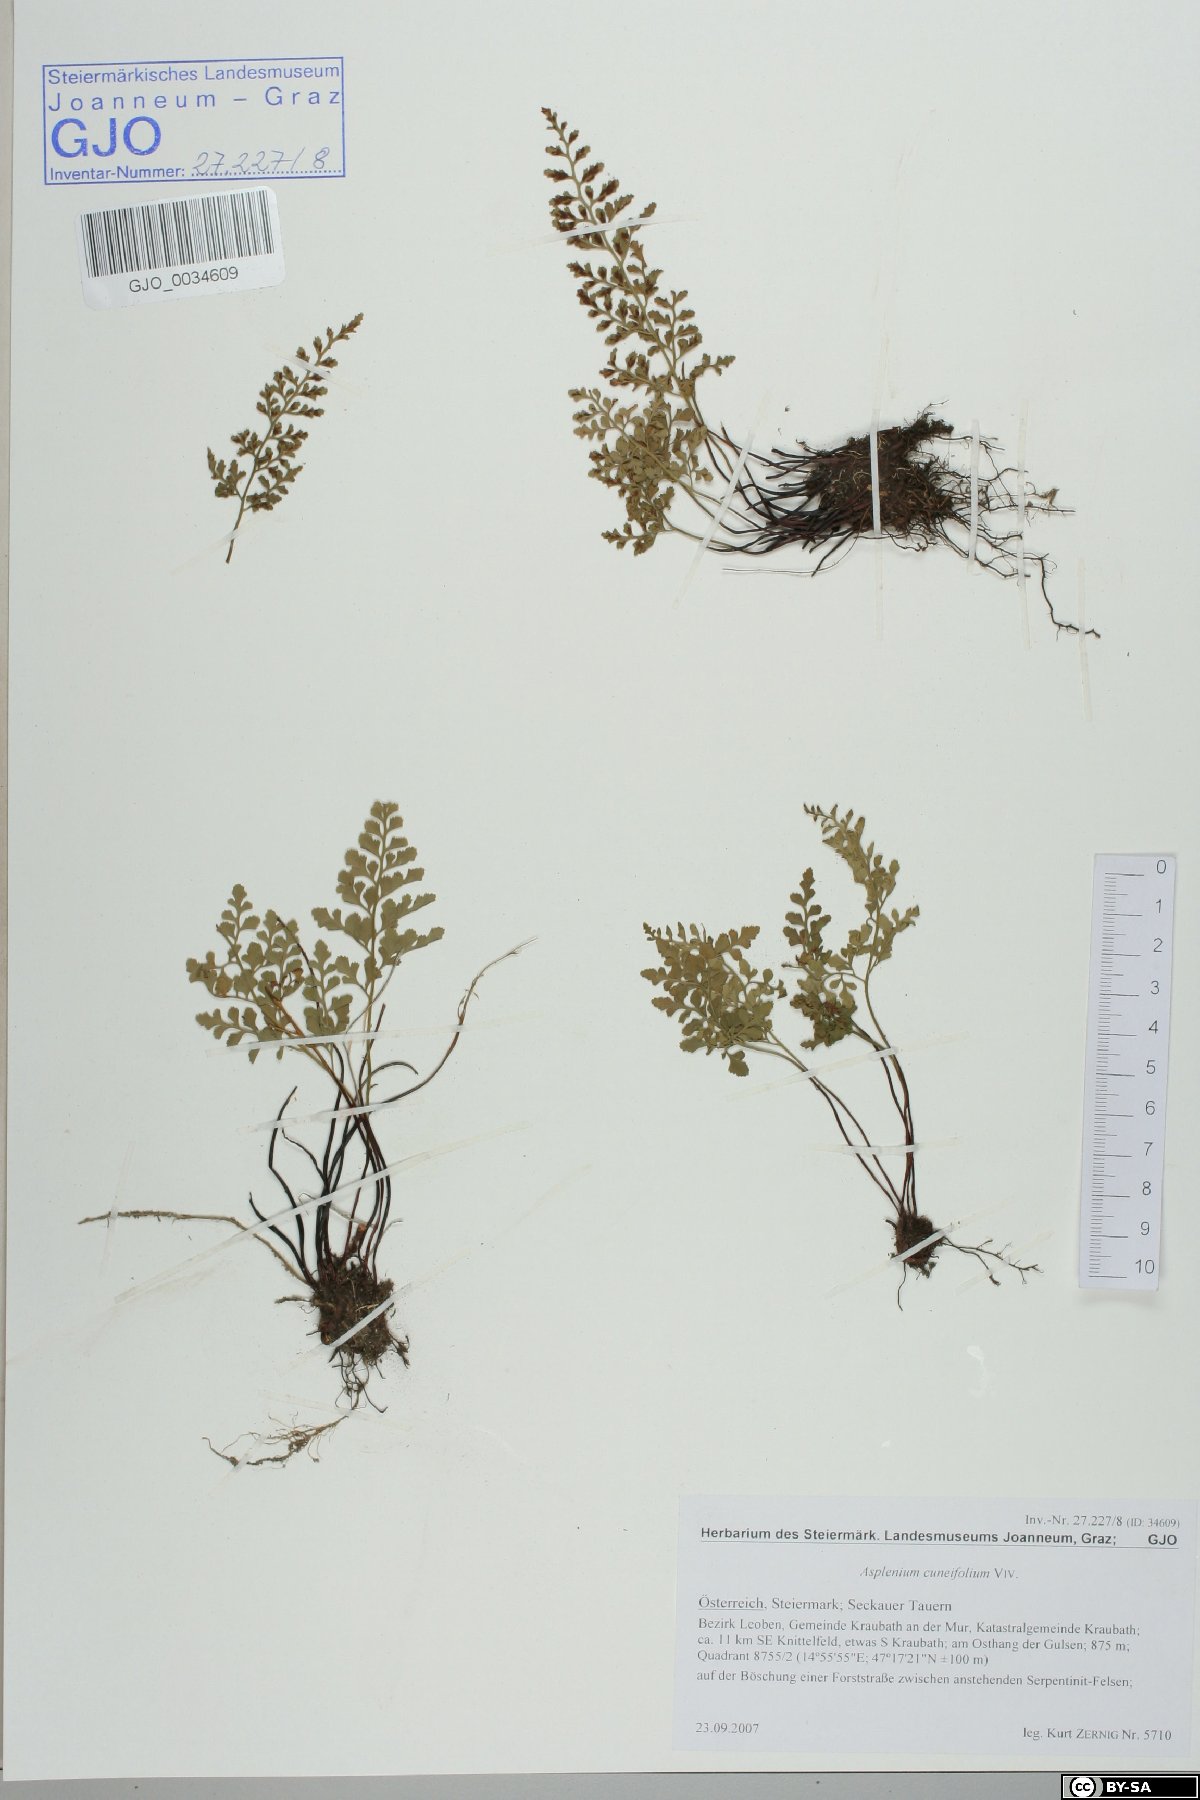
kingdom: Plantae
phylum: Tracheophyta
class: Polypodiopsida
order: Polypodiales
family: Aspleniaceae
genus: Asplenium
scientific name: Asplenium cuneifolium
